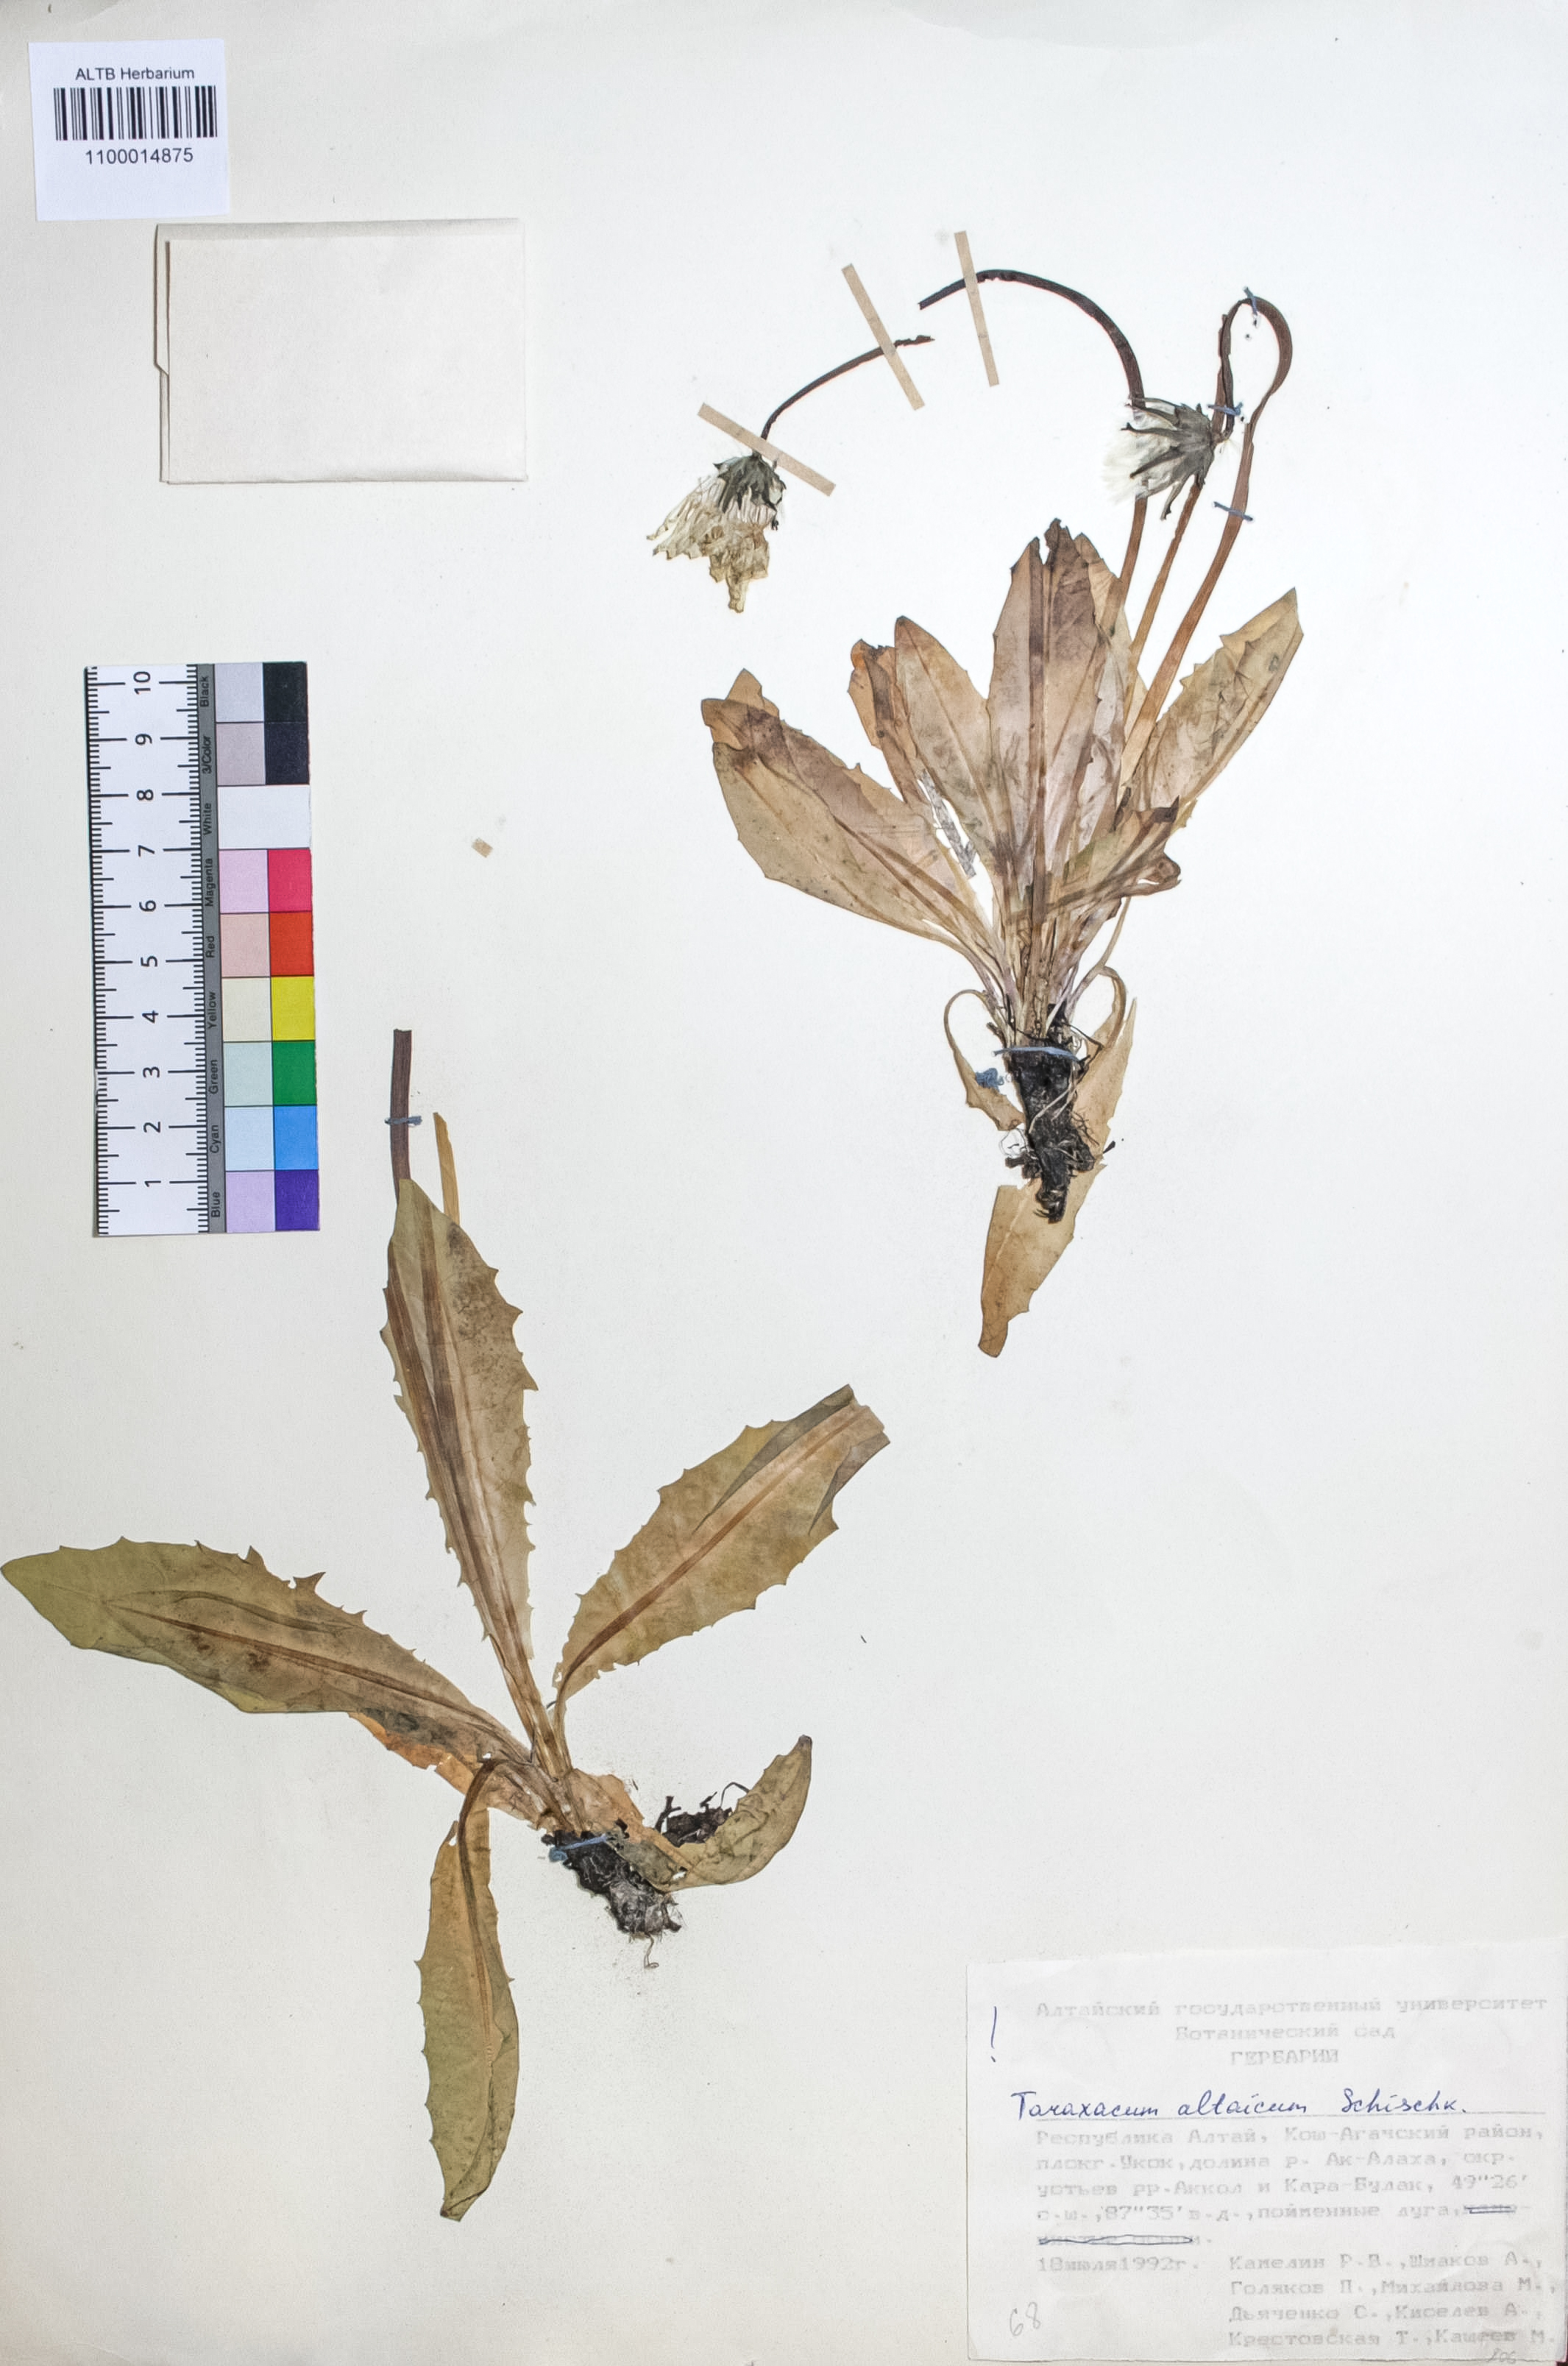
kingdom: Plantae
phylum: Tracheophyta
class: Magnoliopsida
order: Asterales
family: Asteraceae
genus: Taraxacum
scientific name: Taraxacum ceratophorum
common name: Horn-bearing dandelion
